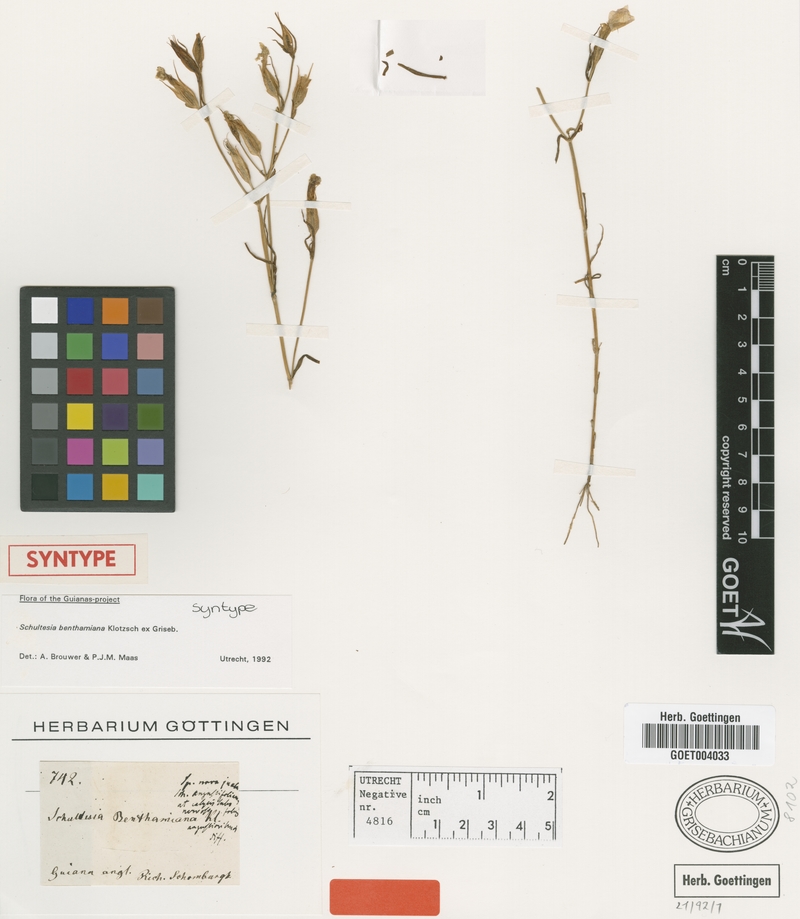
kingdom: Plantae
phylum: Tracheophyta
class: Magnoliopsida
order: Gentianales
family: Gentianaceae
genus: Schultesia
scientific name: Schultesia benthamiana
